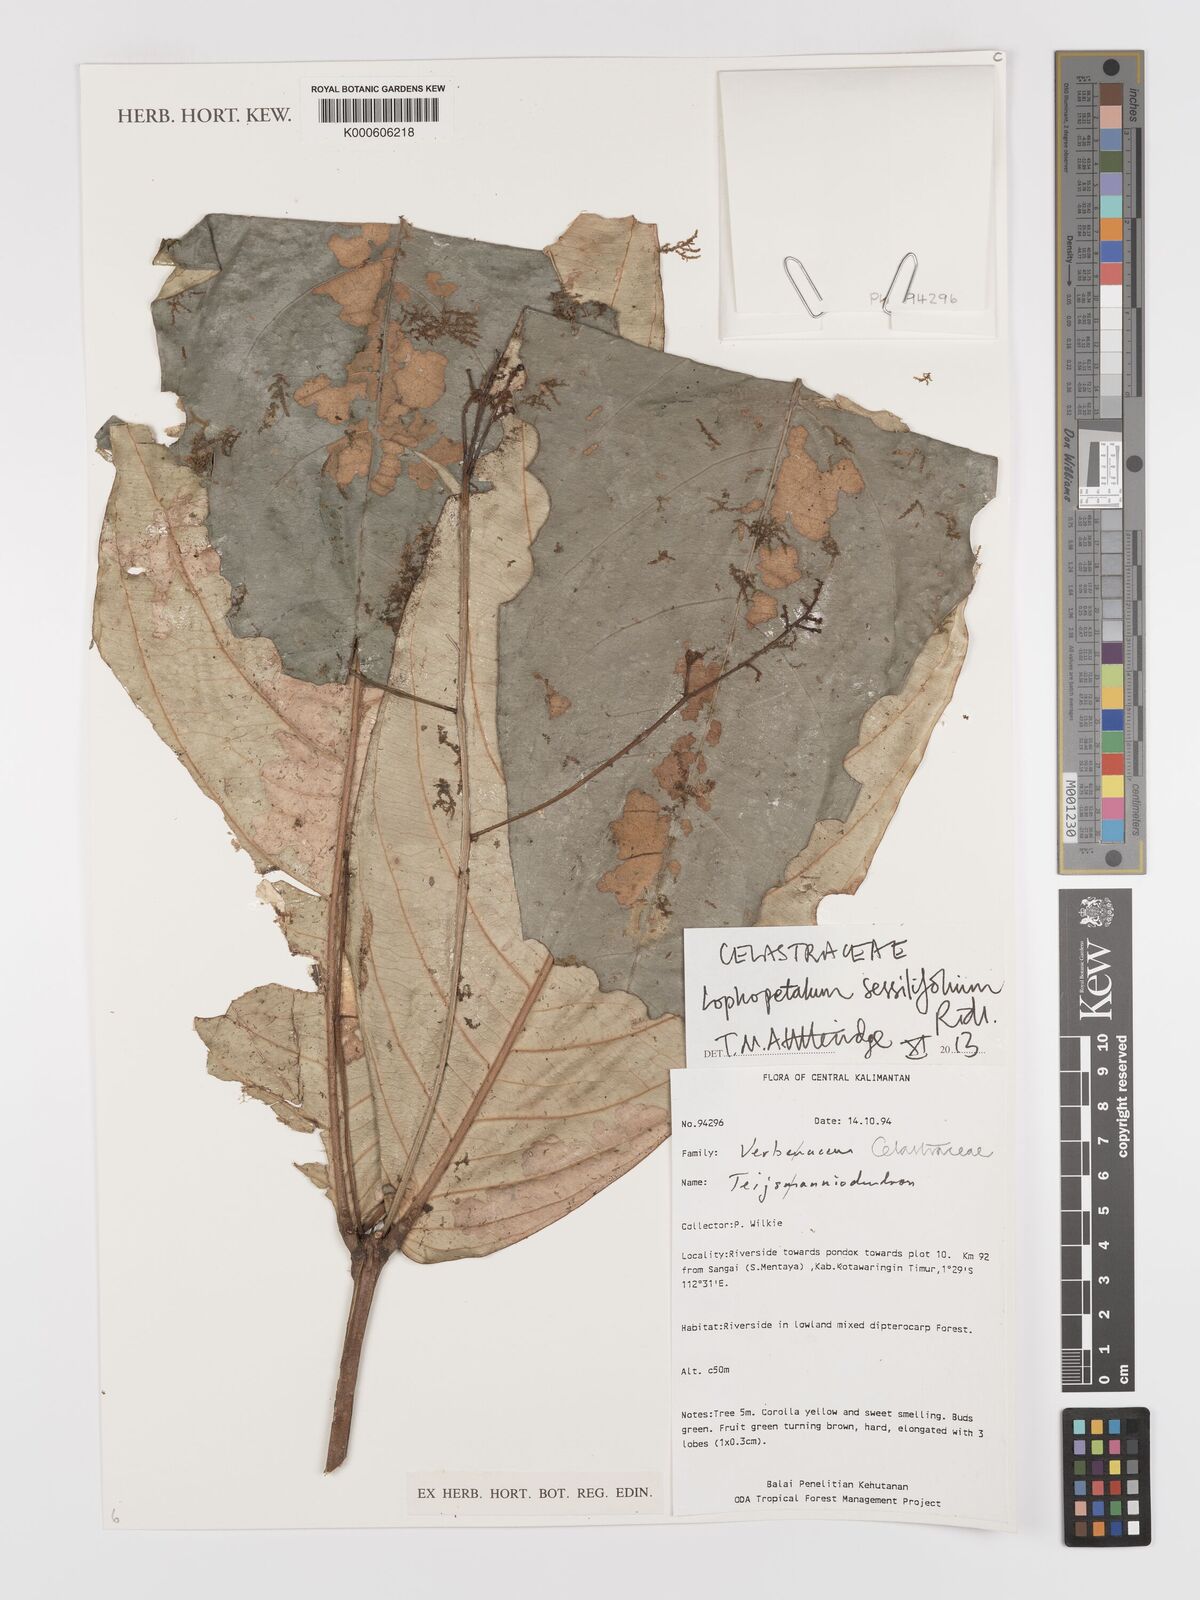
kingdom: Plantae
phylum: Tracheophyta
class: Magnoliopsida
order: Celastrales
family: Celastraceae
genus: Lophopetalum
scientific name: Lophopetalum sessilifolium
